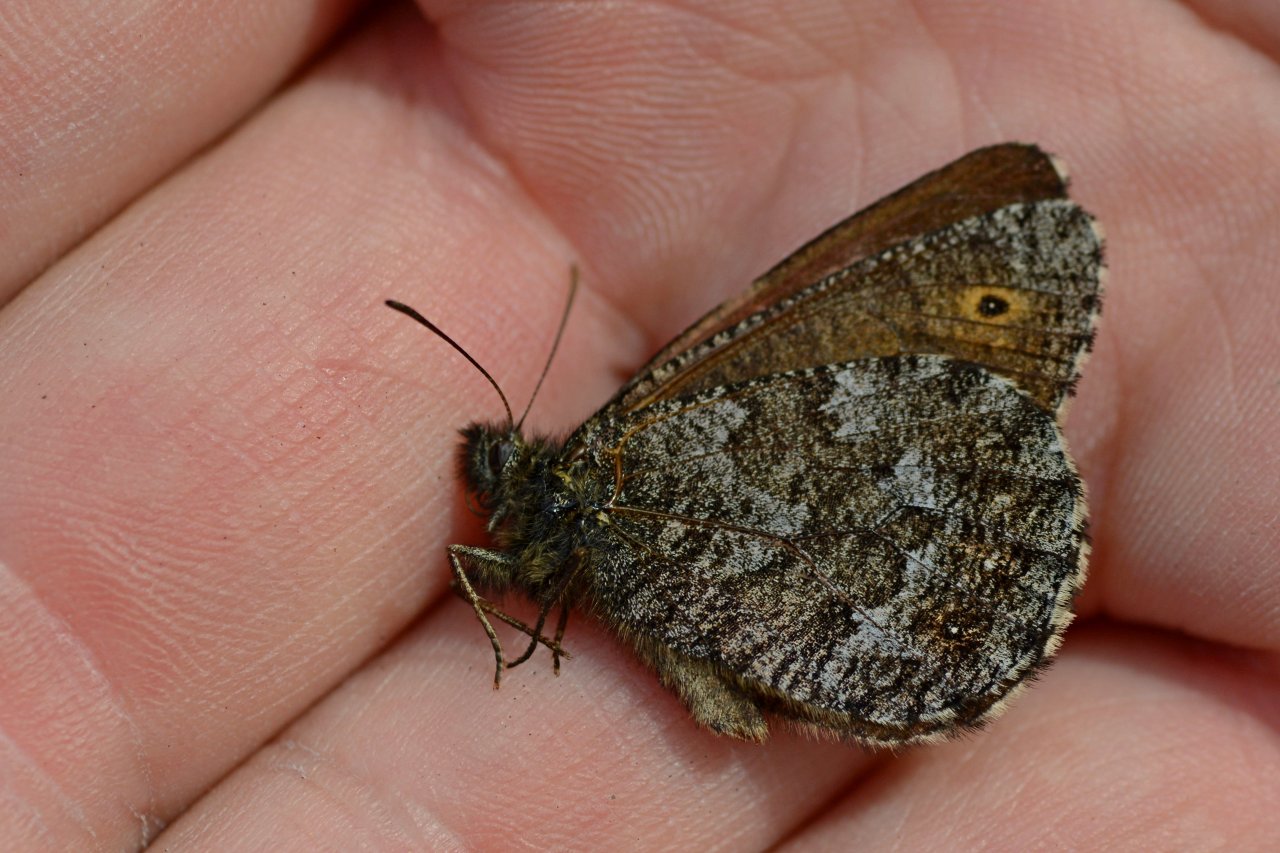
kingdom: Animalia
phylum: Arthropoda
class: Insecta
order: Lepidoptera
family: Nymphalidae
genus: Oeneis
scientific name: Oeneis jutta
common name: Jutta Arctic
